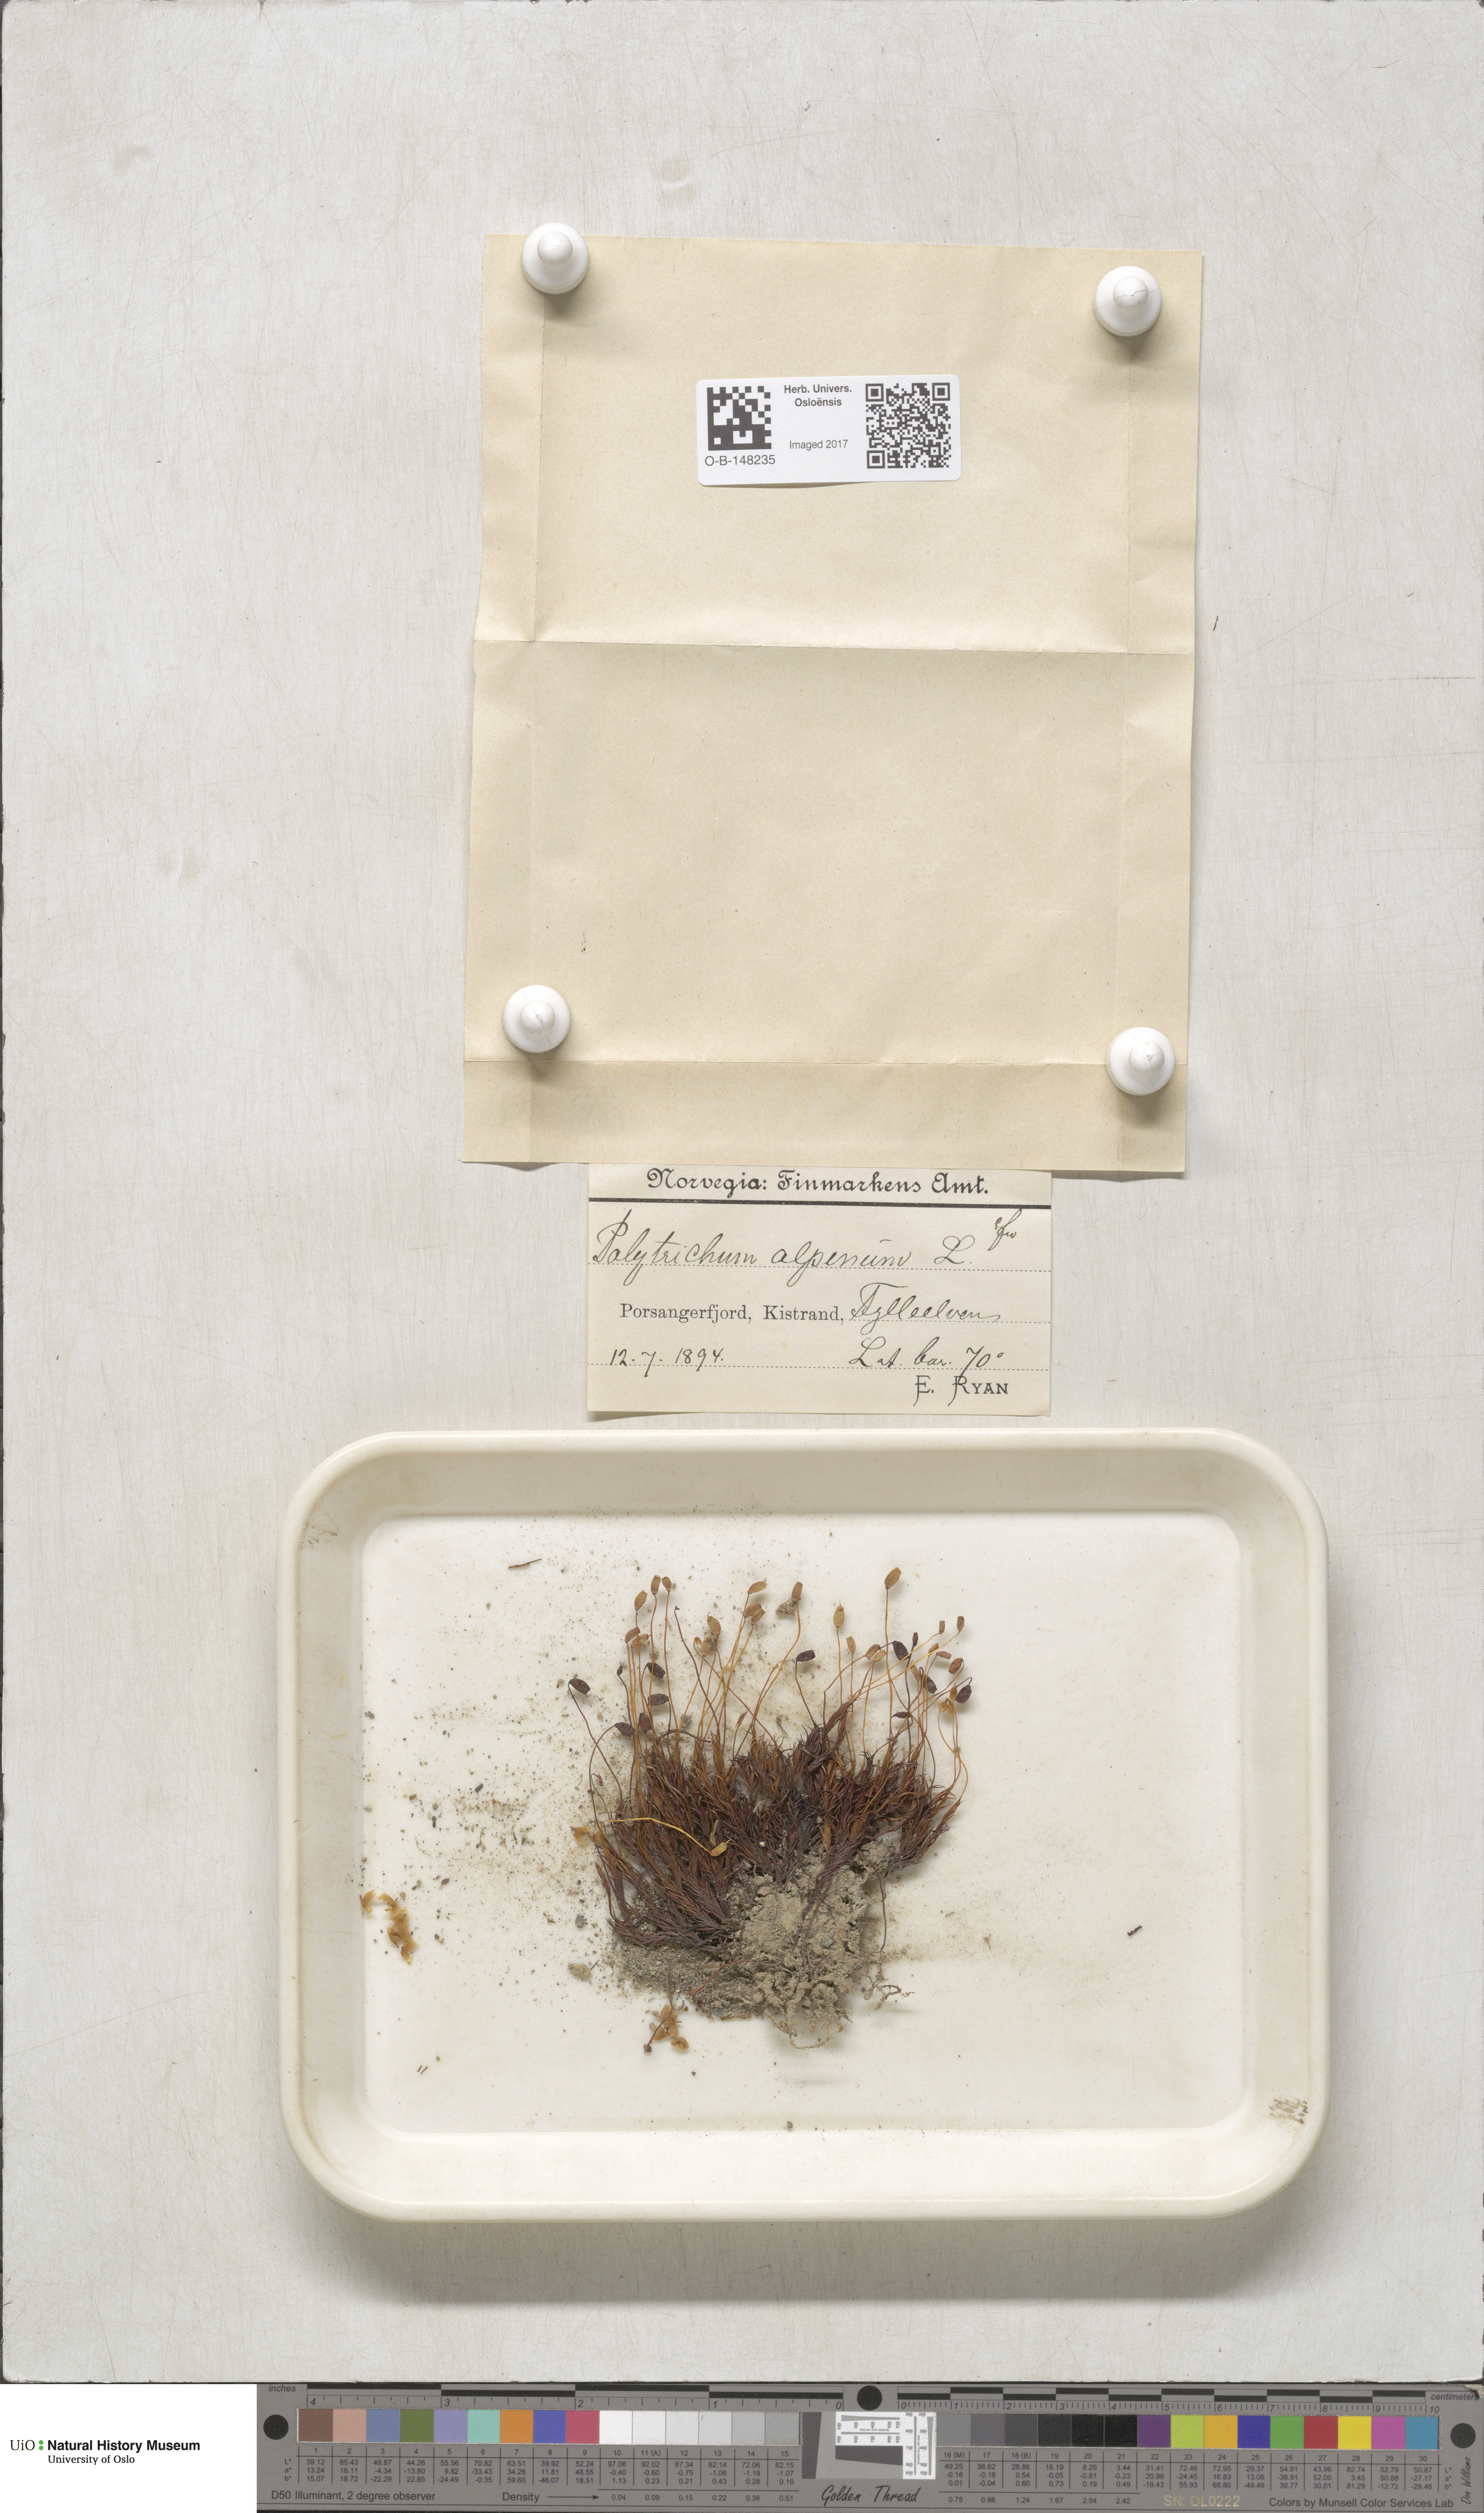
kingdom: Plantae
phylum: Bryophyta
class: Polytrichopsida
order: Polytrichales
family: Polytrichaceae
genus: Polytrichastrum
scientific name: Polytrichastrum alpinum
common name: Alpine haircap
